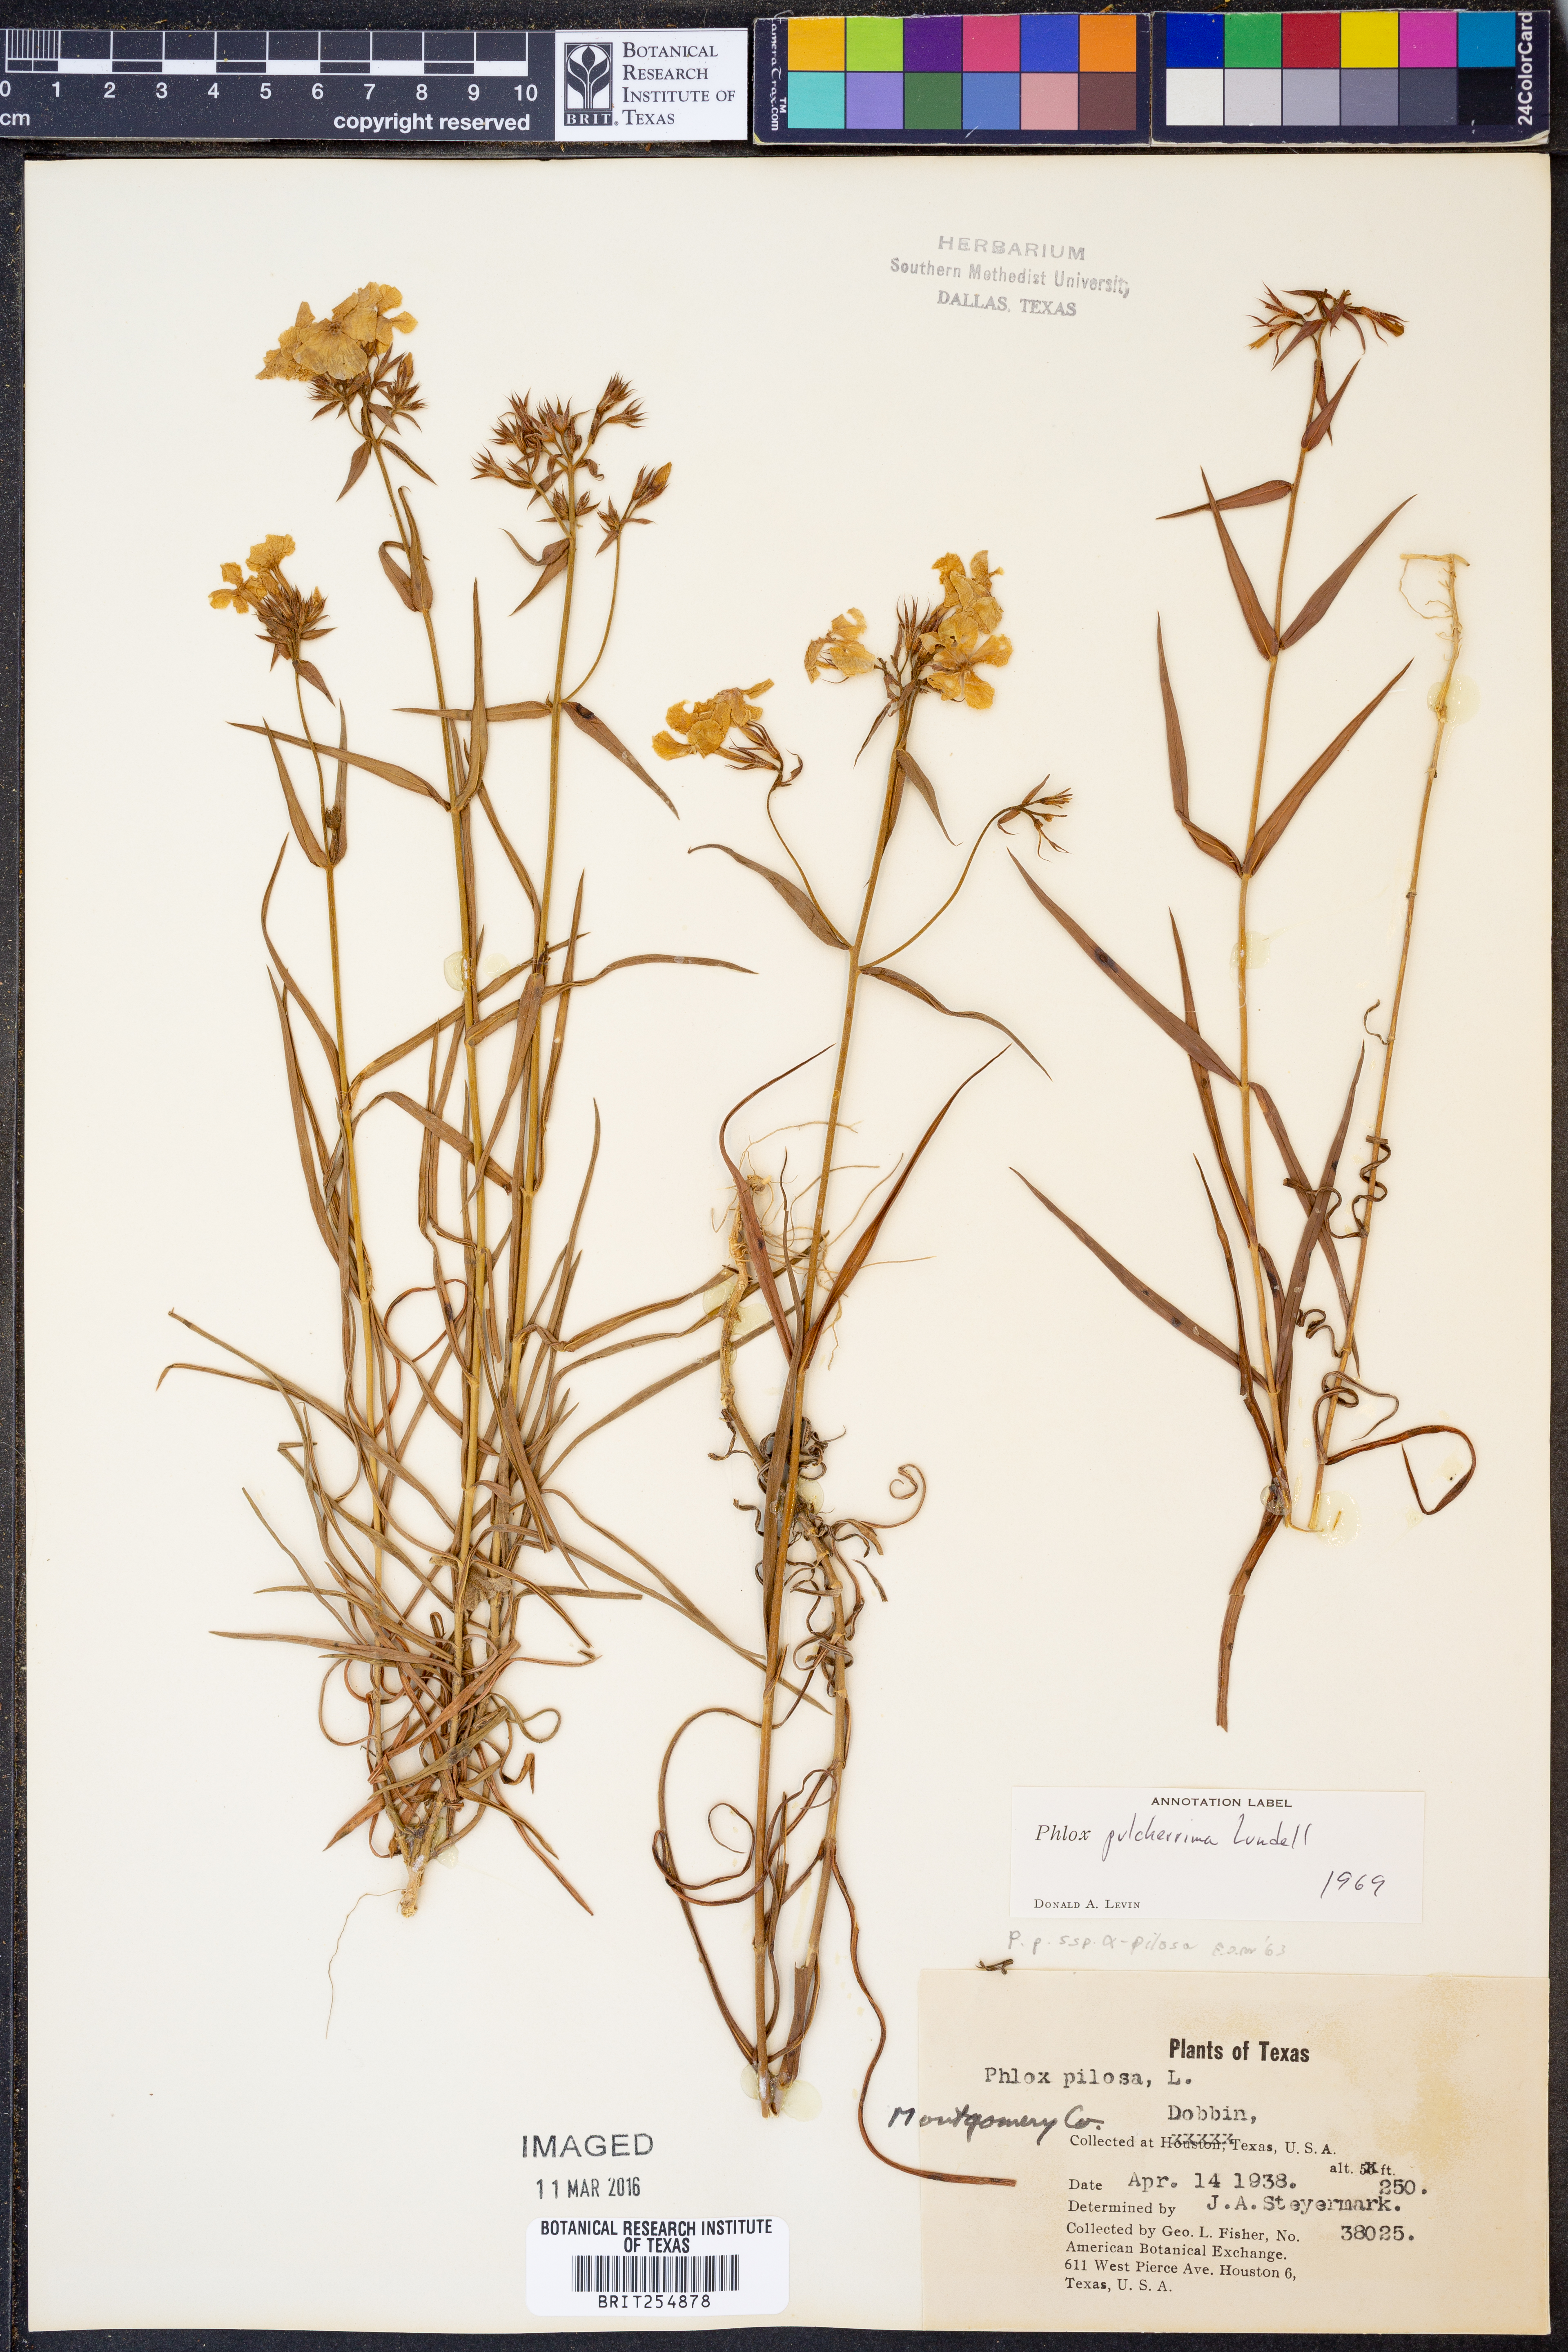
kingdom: Plantae
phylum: Tracheophyta
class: Magnoliopsida
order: Ericales
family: Polemoniaceae
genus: Phlox
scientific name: Phlox pilosa
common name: Prairie phlox
